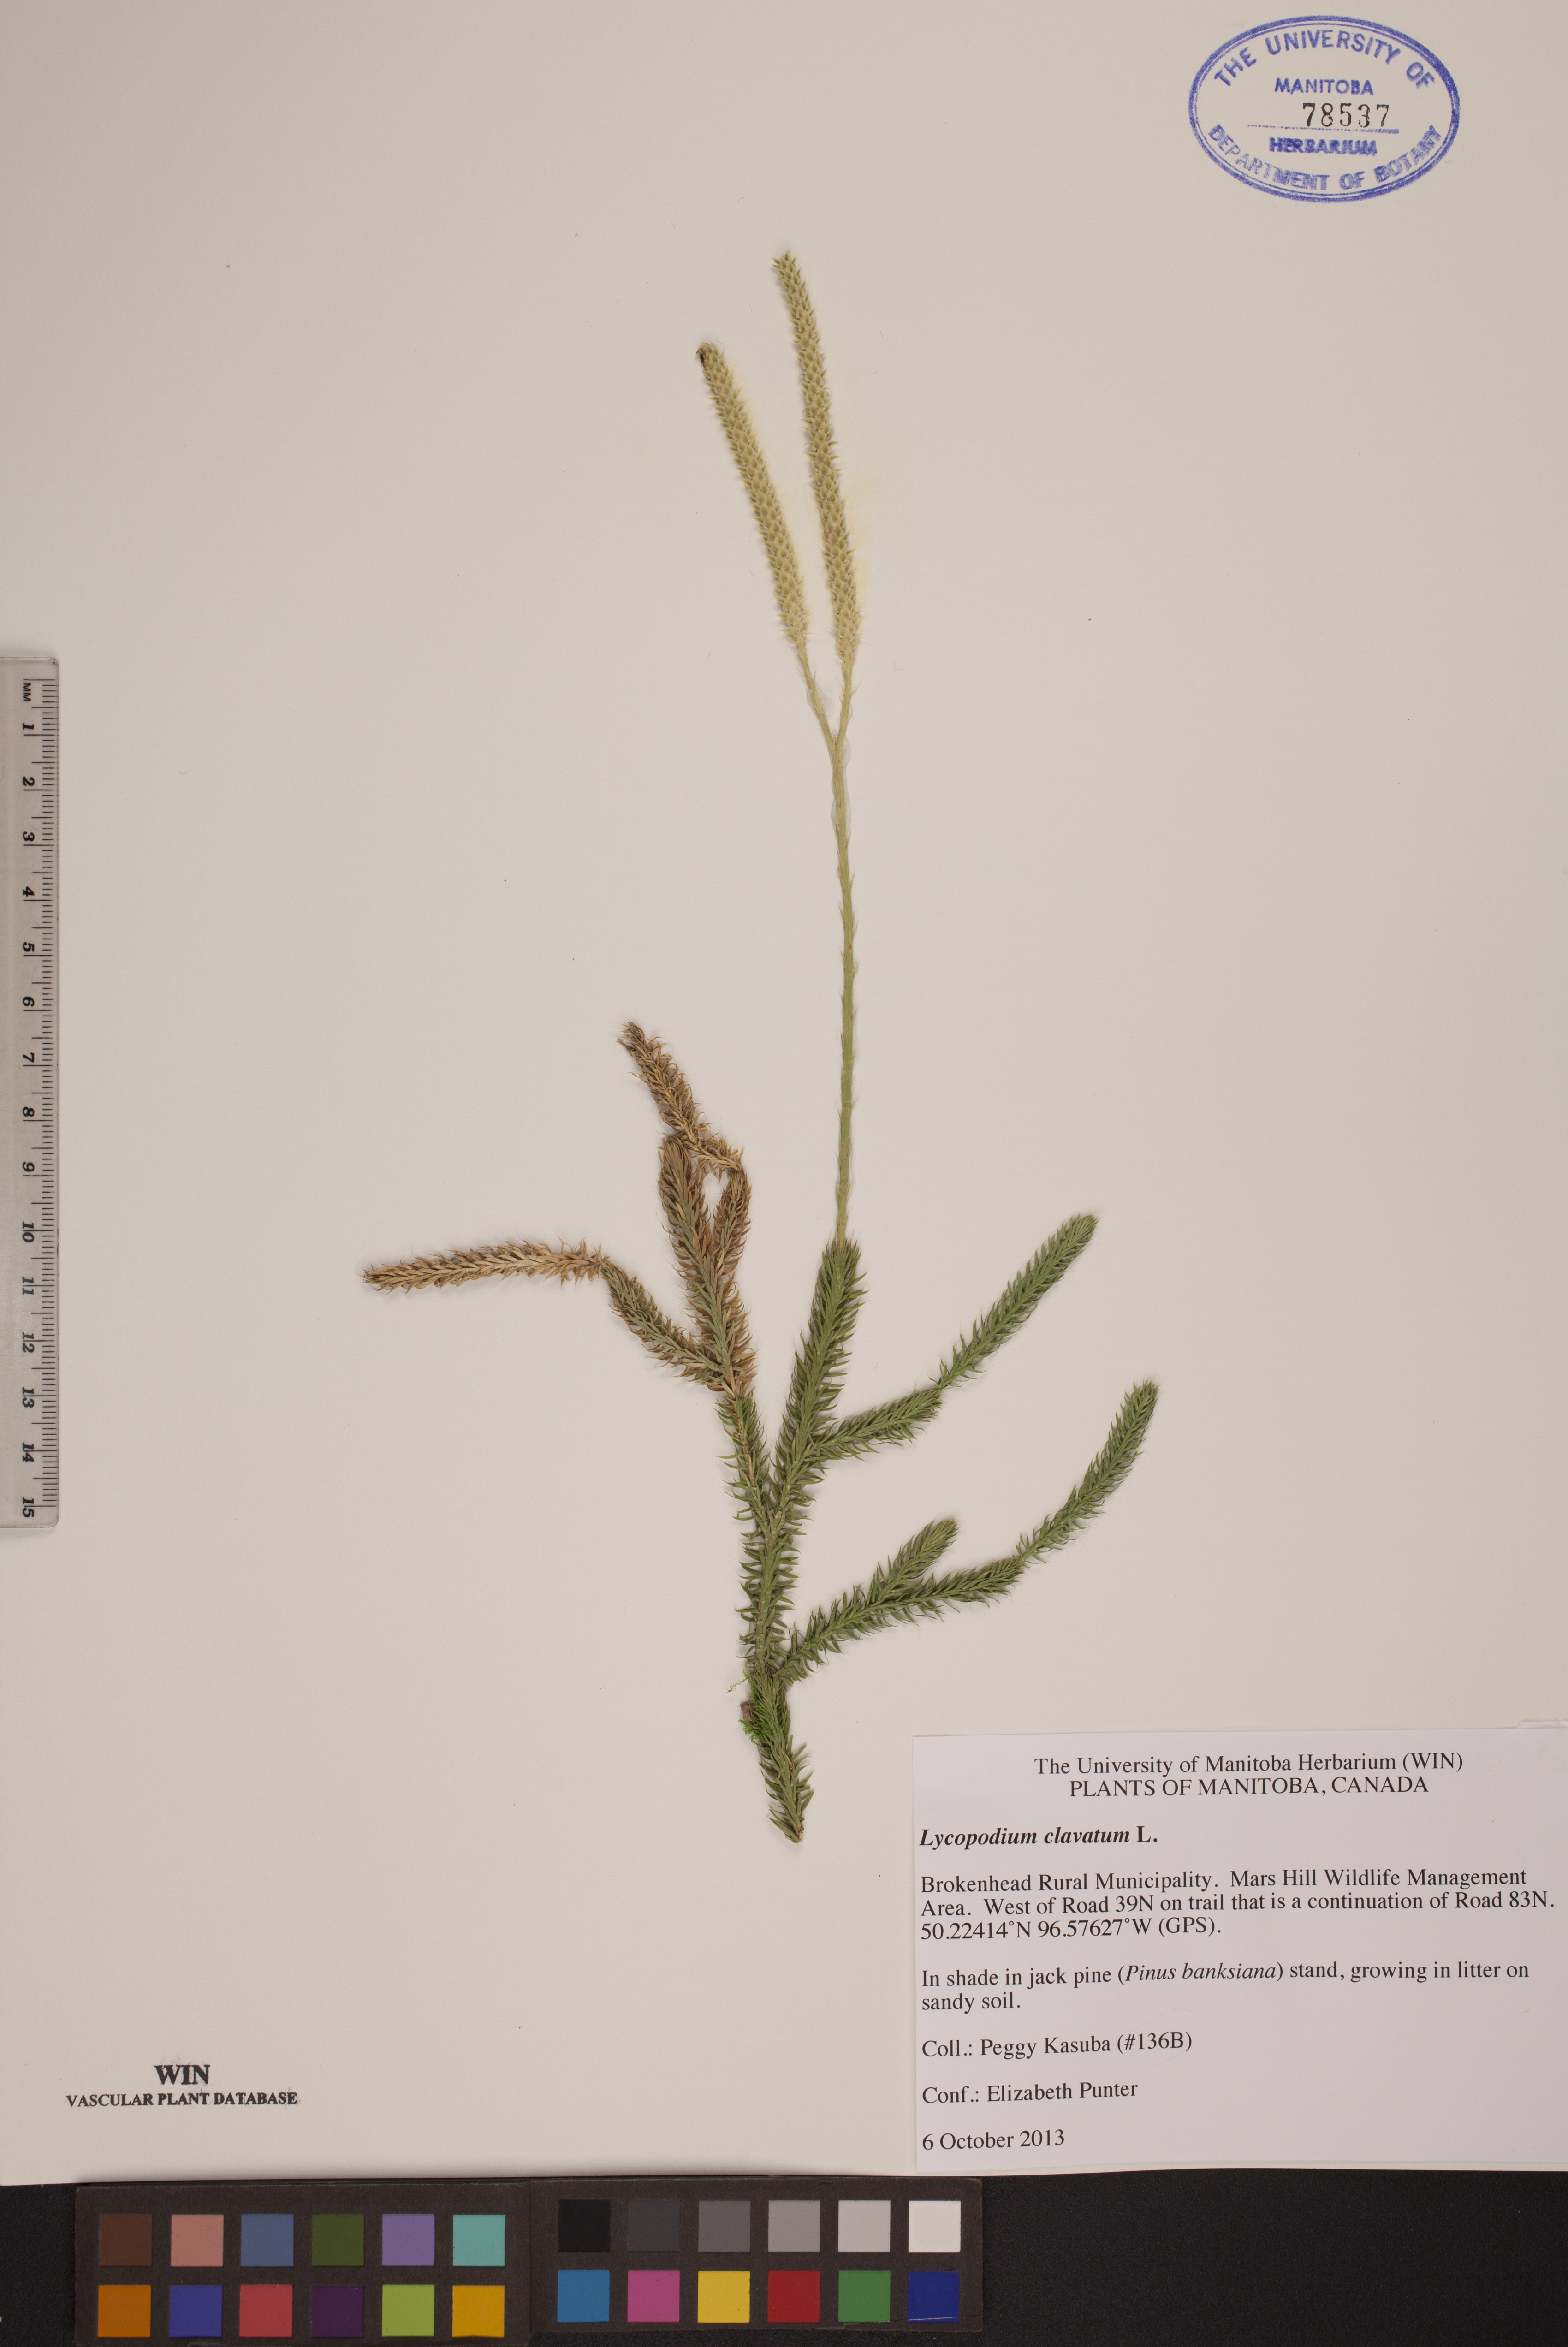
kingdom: Plantae
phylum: Tracheophyta
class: Lycopodiopsida
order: Lycopodiales
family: Lycopodiaceae
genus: Lycopodium
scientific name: Lycopodium clavatum
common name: Stag's-horn clubmoss
